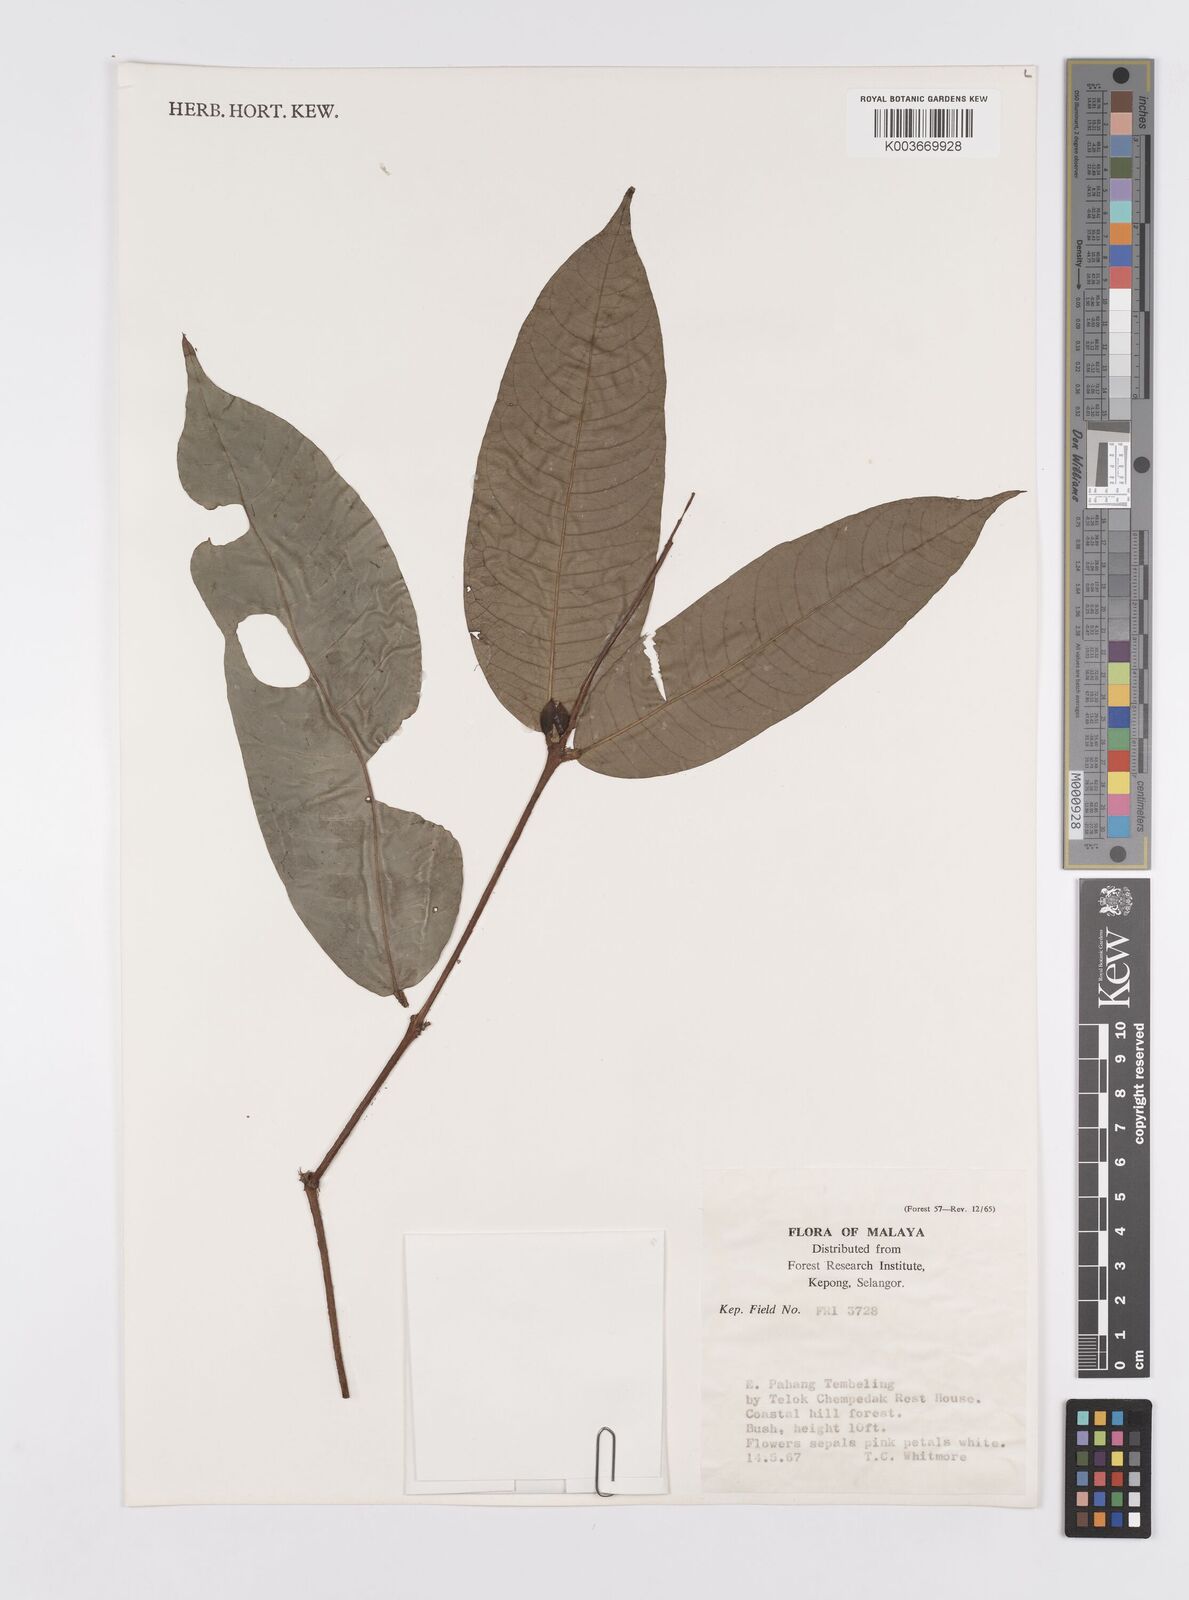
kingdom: Plantae
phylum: Tracheophyta
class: Magnoliopsida
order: Malpighiales
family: Clusiaceae
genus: Garcinia
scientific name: Garcinia
